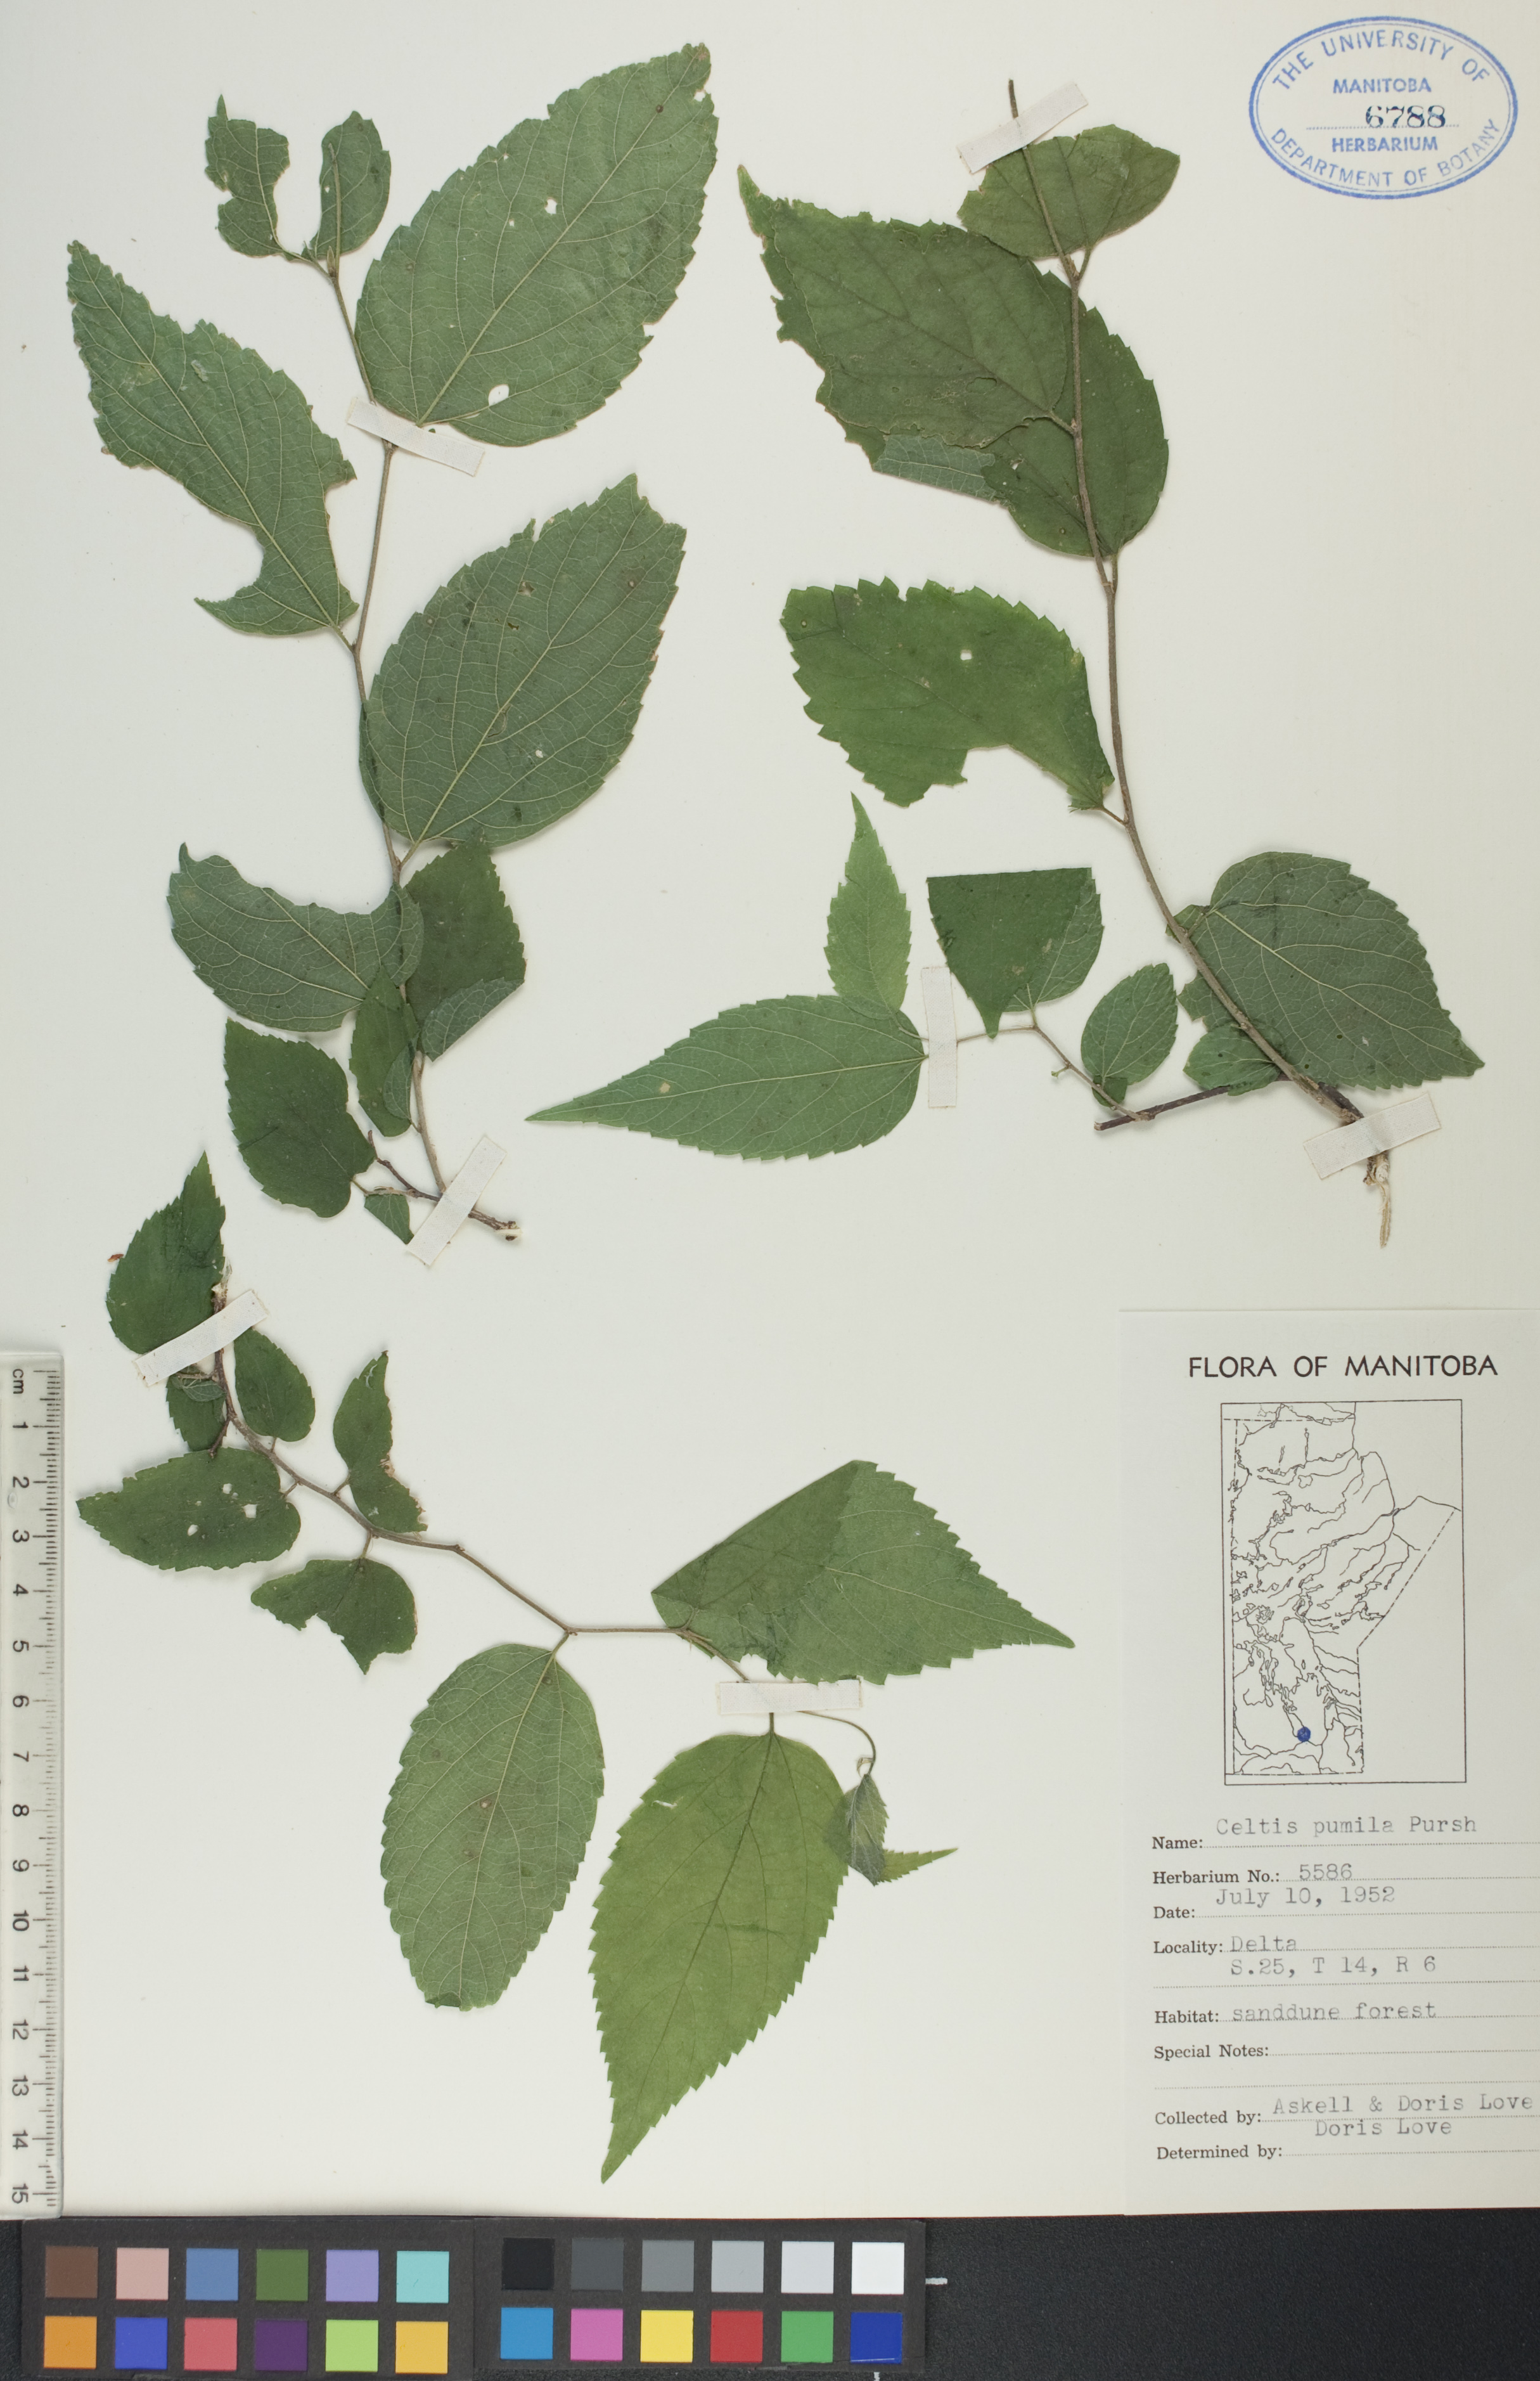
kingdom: Plantae
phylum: Tracheophyta
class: Magnoliopsida
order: Rosales
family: Cannabaceae
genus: Celtis
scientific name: Celtis occidentalis
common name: Common hackberry
